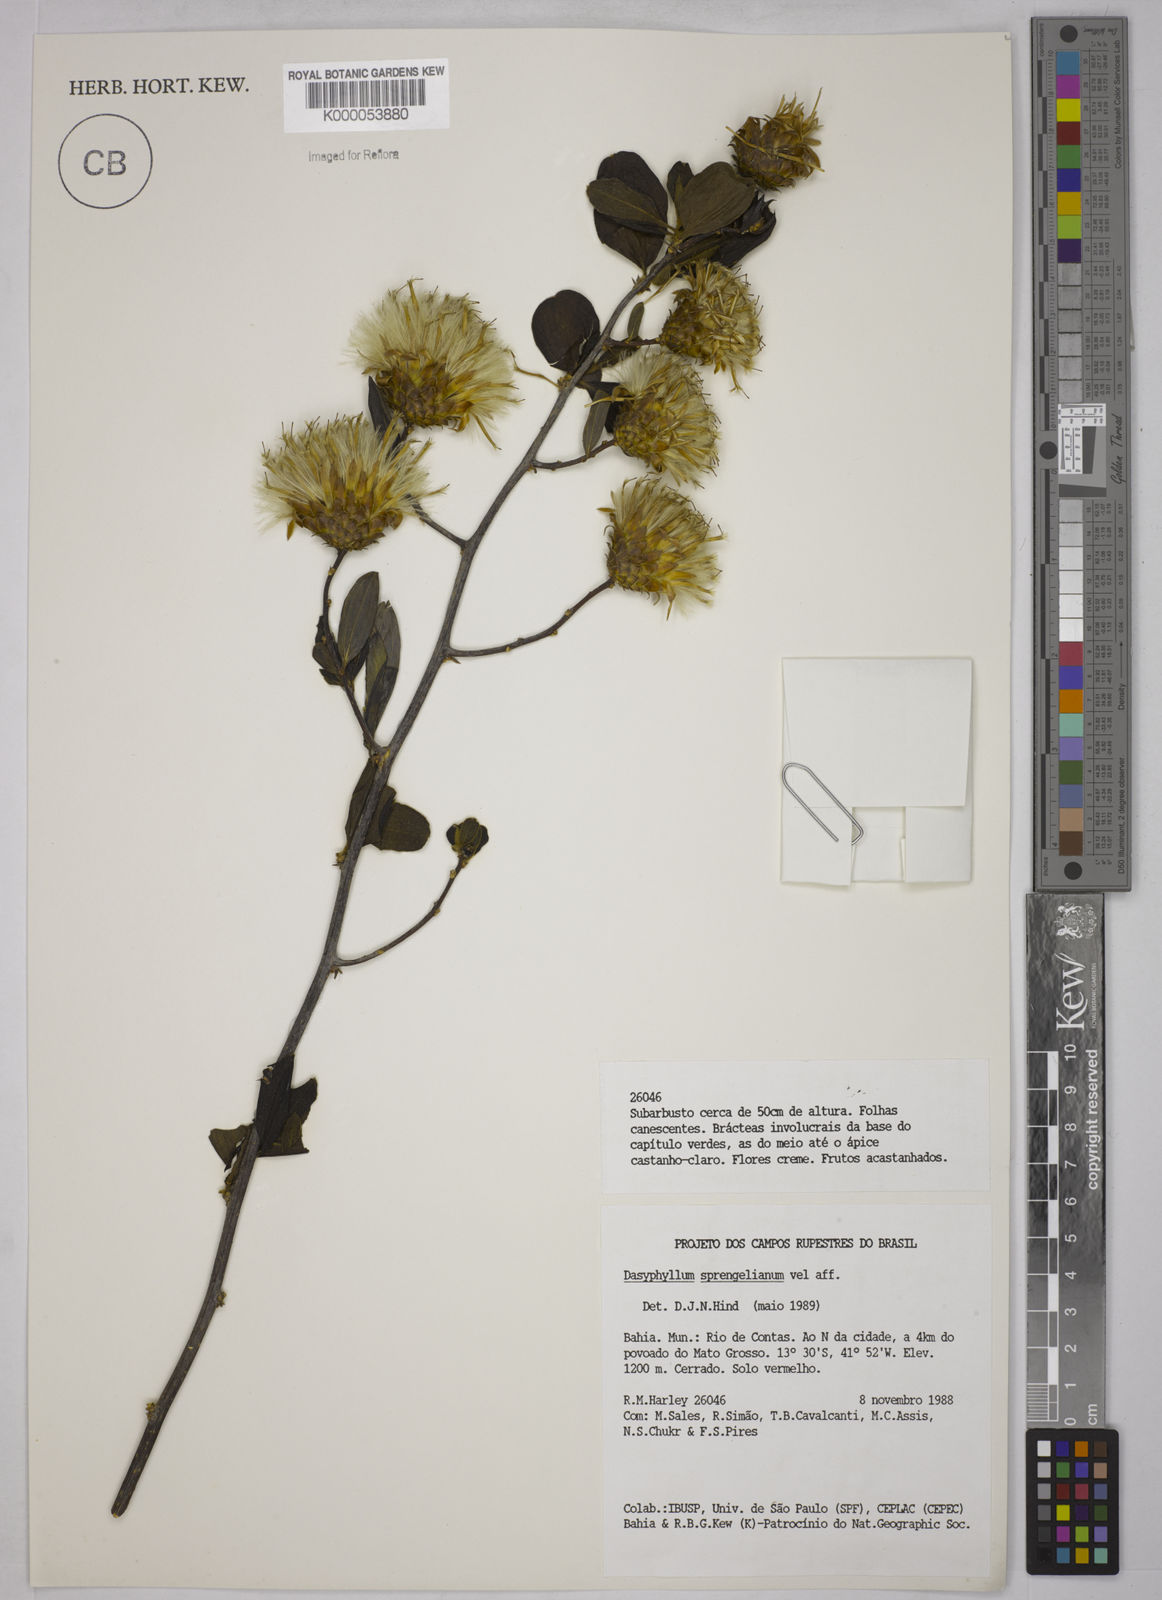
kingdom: Plantae
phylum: Tracheophyta
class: Magnoliopsida
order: Asterales
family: Asteraceae
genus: Dasyphyllum
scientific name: Dasyphyllum sprengelianum
